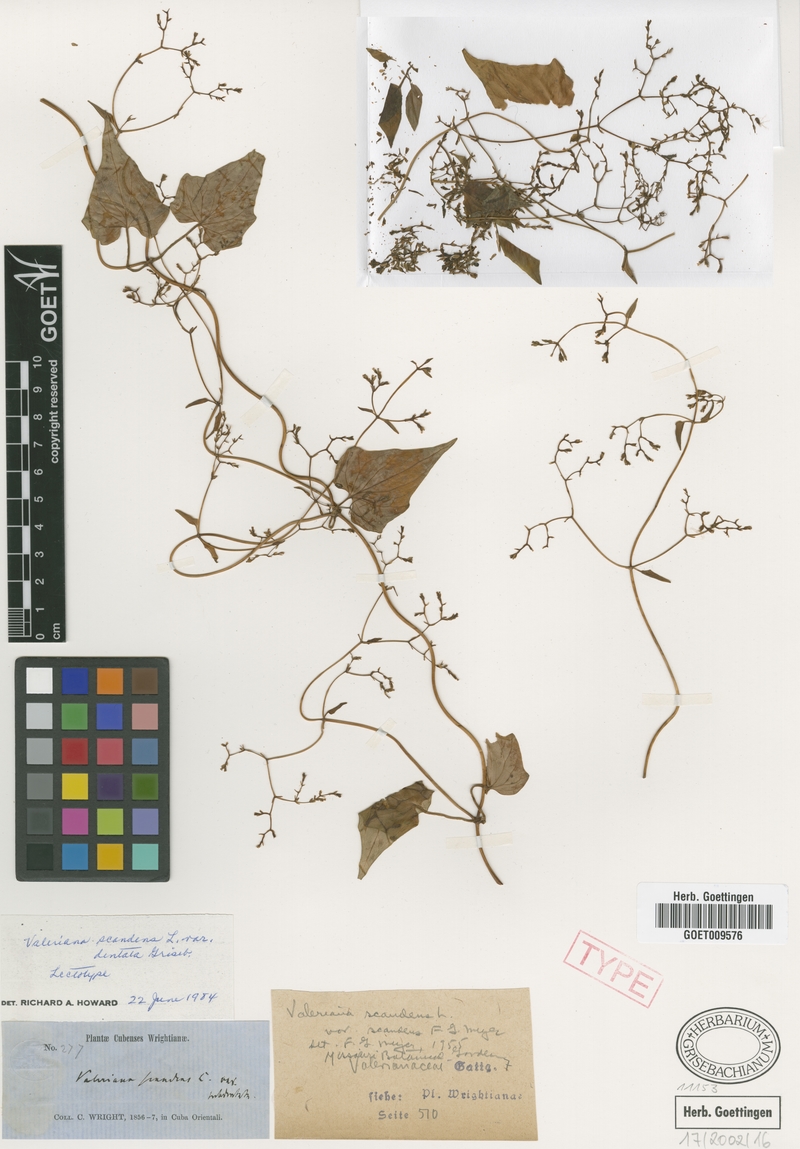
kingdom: Plantae
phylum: Tracheophyta
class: Magnoliopsida
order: Dipsacales
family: Caprifoliaceae
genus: Valeriana
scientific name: Valeriana
